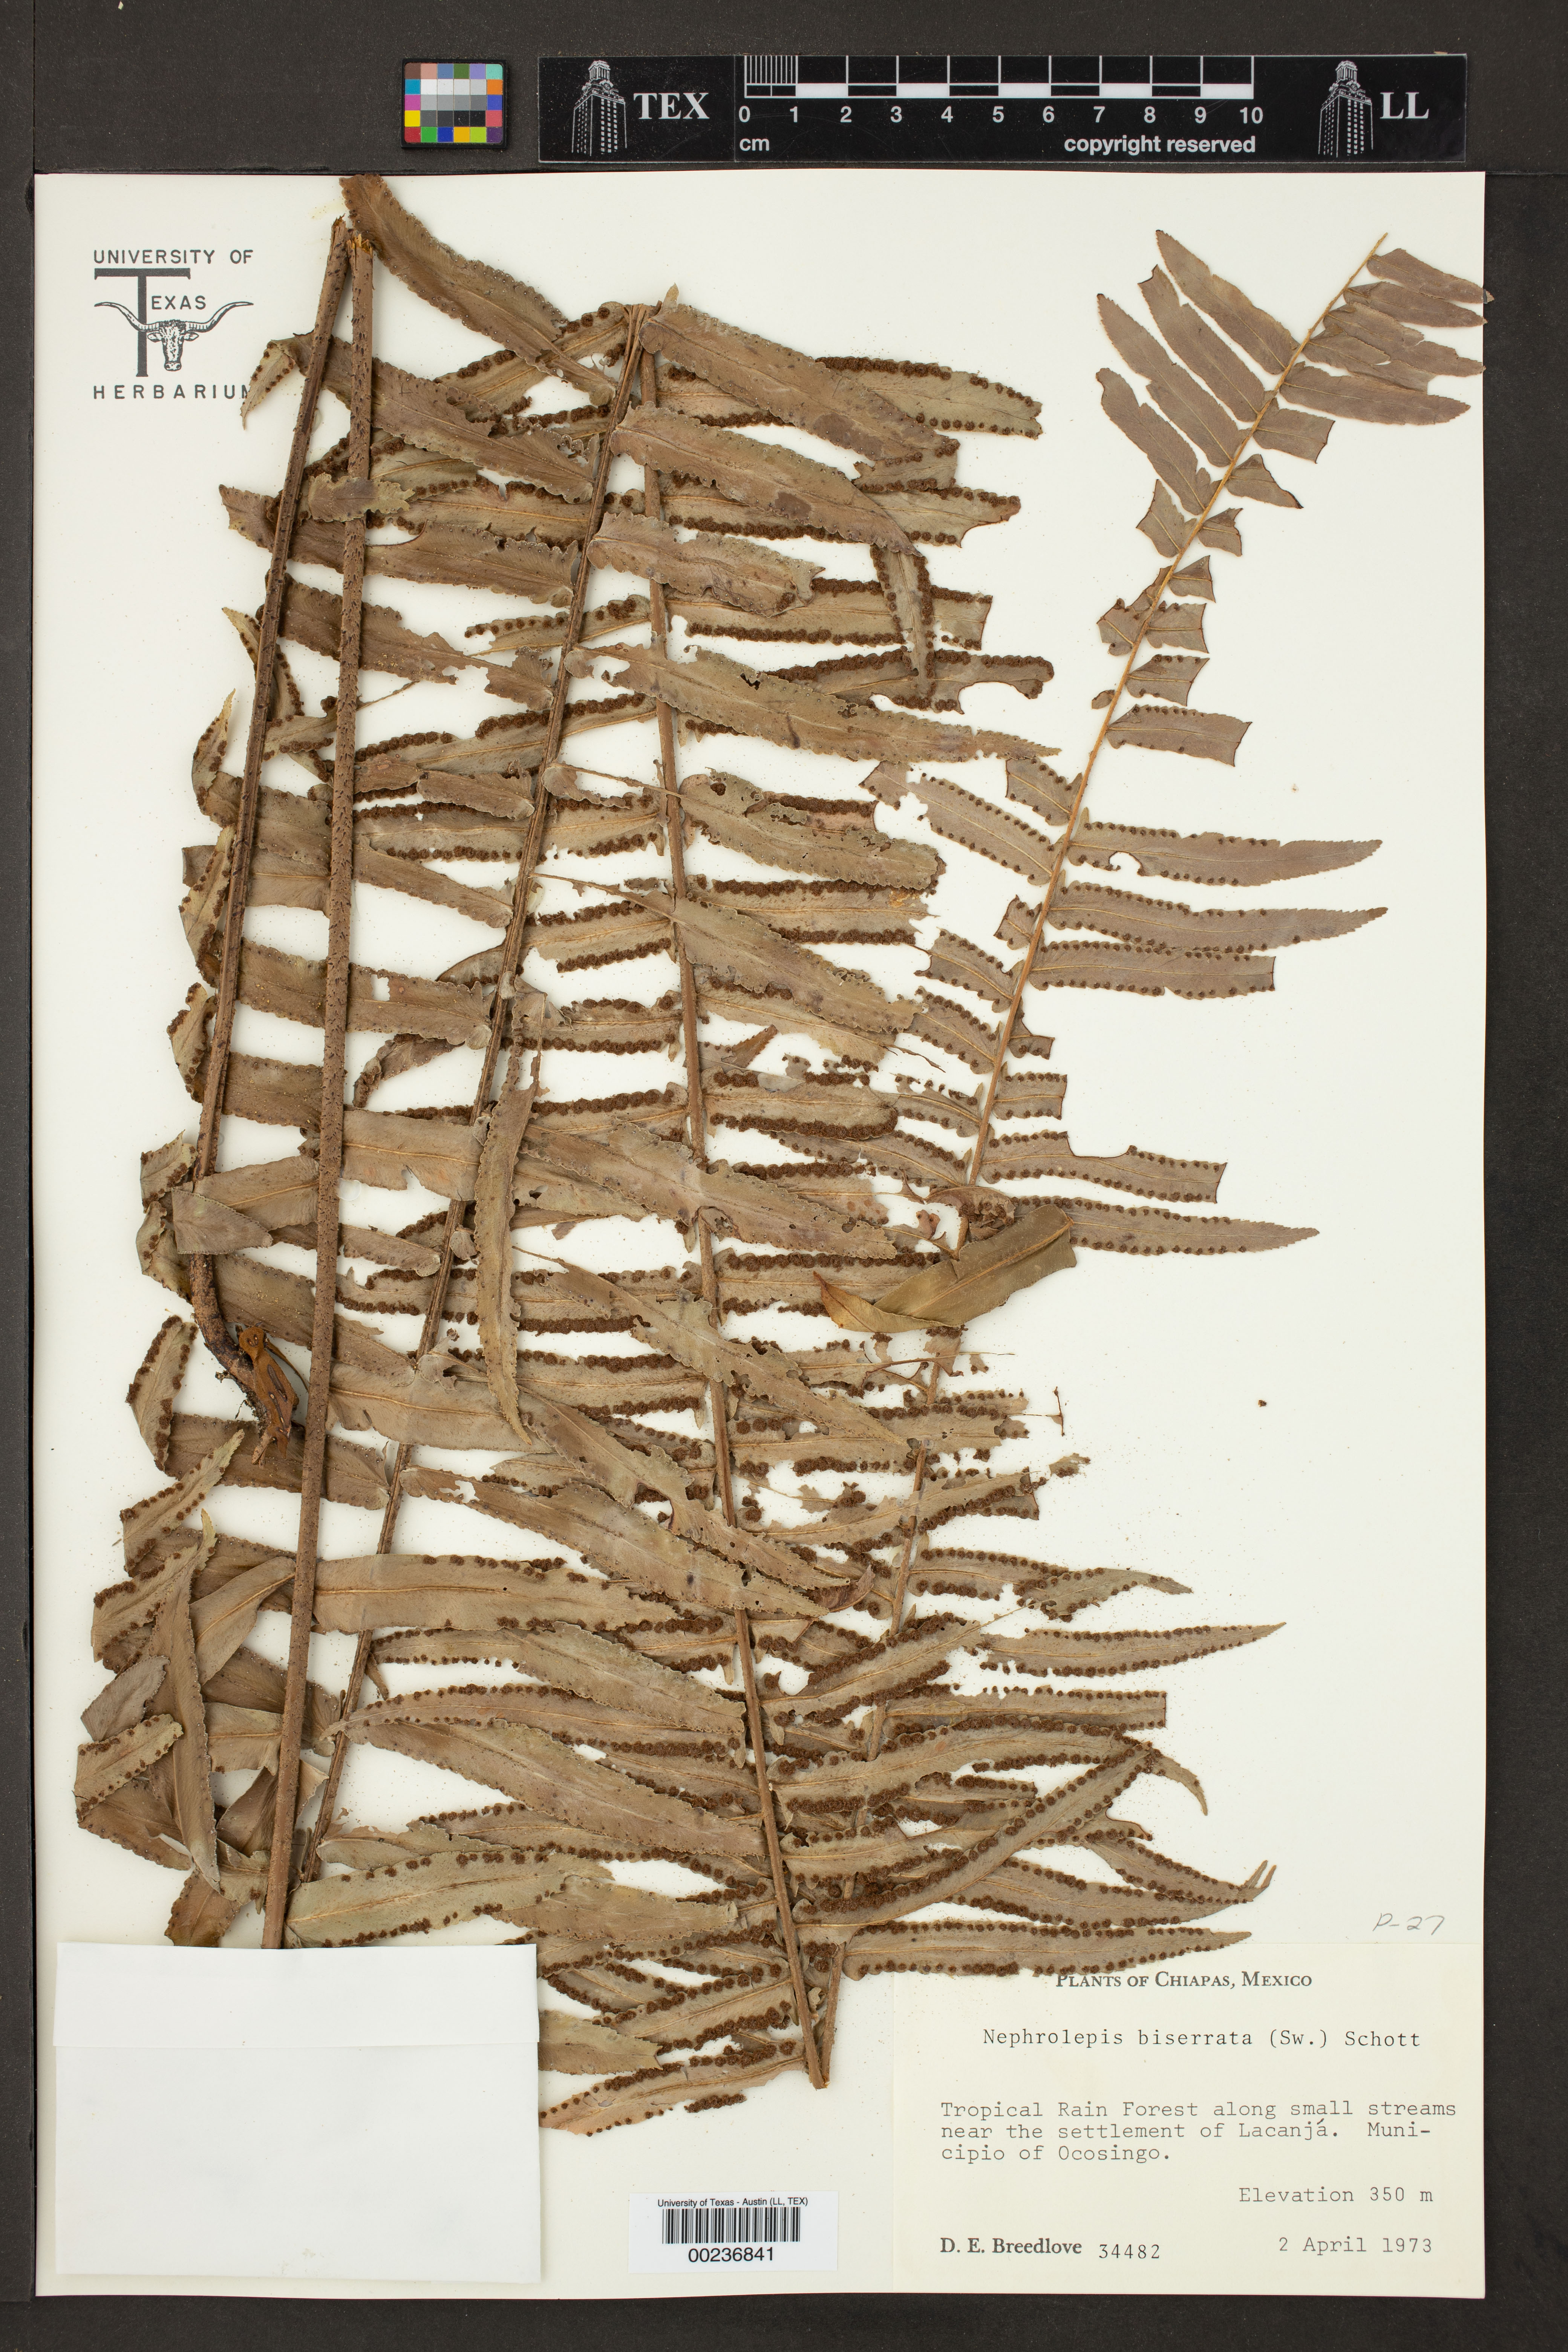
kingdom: Plantae
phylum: Tracheophyta
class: Polypodiopsida
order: Polypodiales
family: Nephrolepidaceae
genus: Nephrolepis
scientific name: Nephrolepis biserrata
